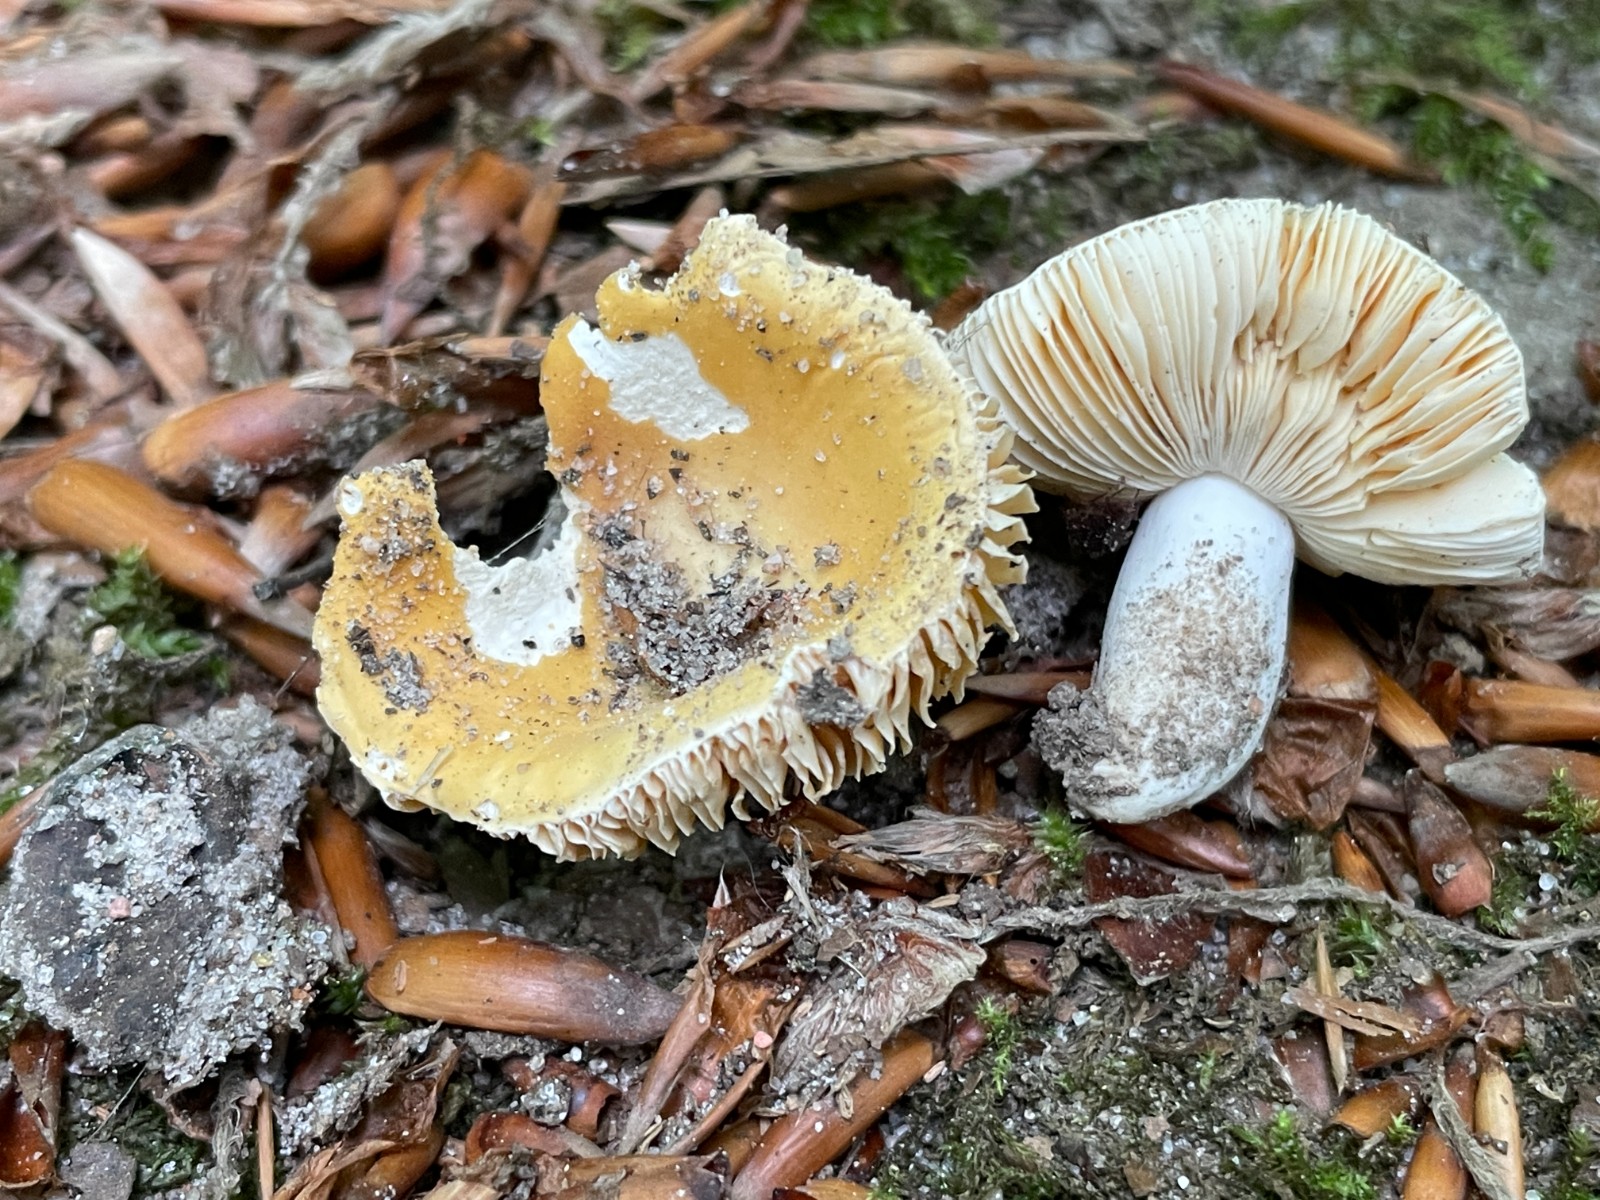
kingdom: Fungi
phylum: Basidiomycota
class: Agaricomycetes
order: Russulales
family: Russulaceae
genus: Russula
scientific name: Russula risigallina
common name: abrikos-skørhat
